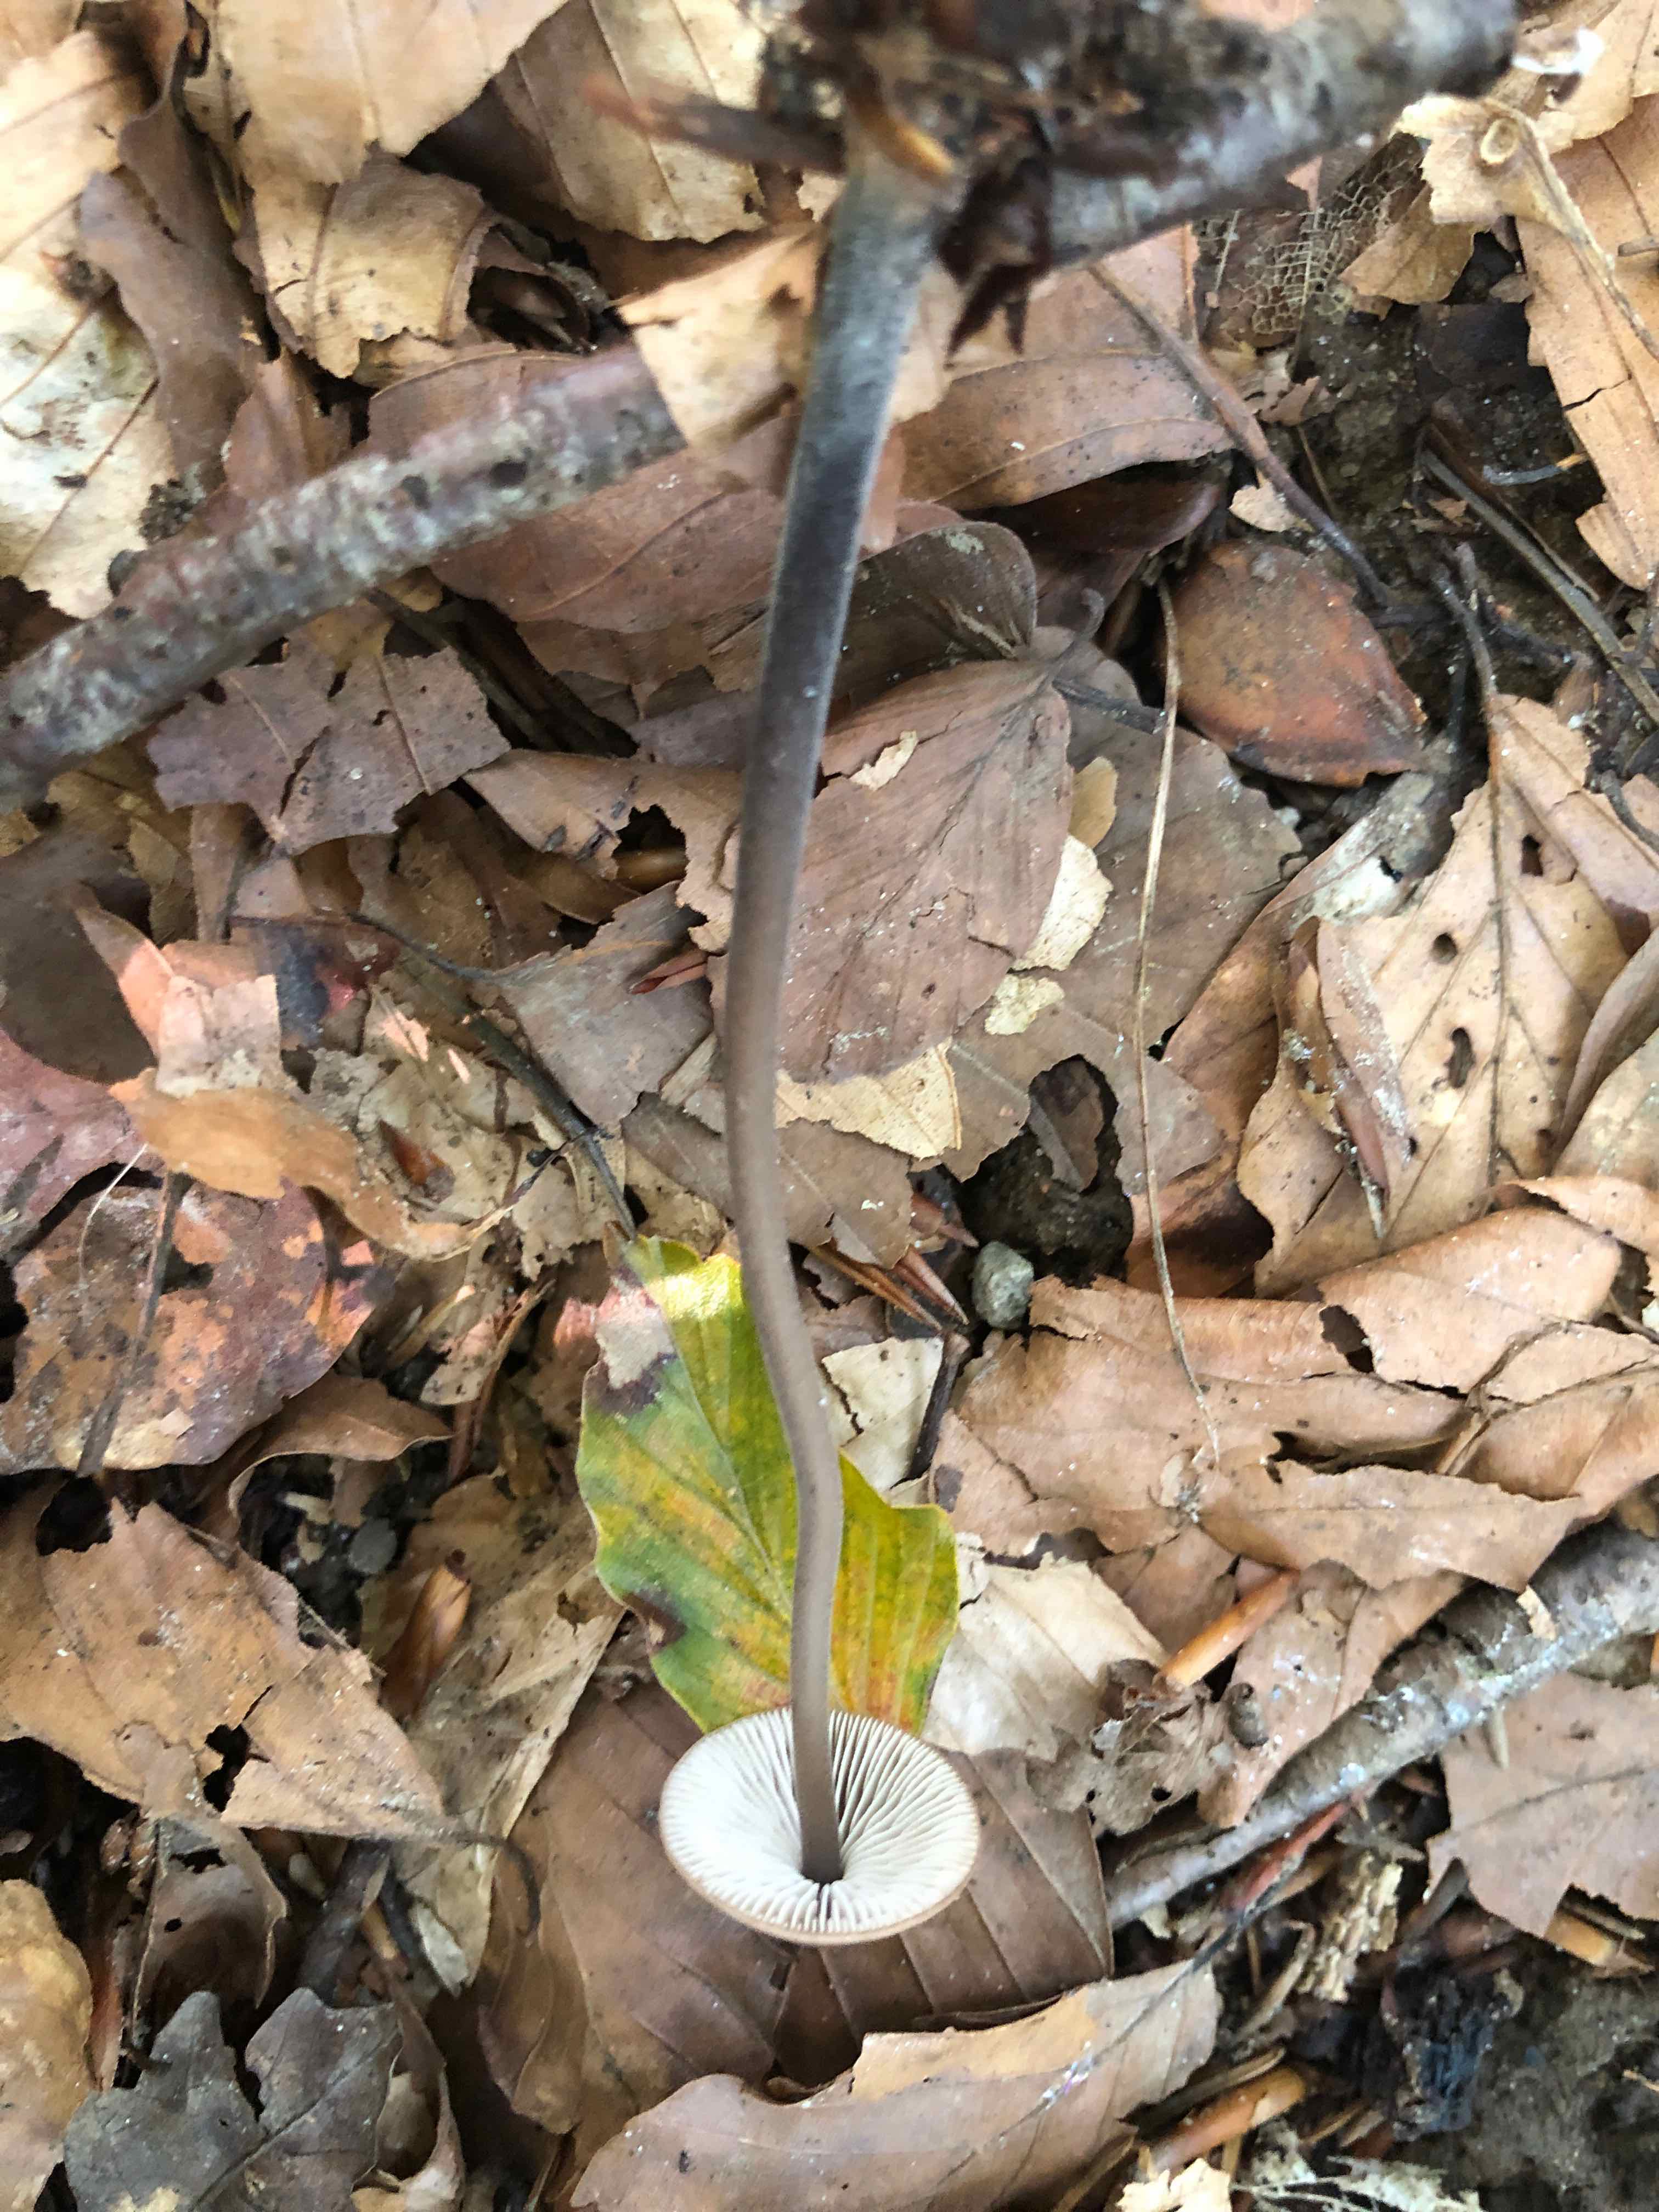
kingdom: Fungi
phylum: Basidiomycota
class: Agaricomycetes
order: Agaricales
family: Omphalotaceae
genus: Mycetinis
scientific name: Mycetinis alliaceus
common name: stor løghat
